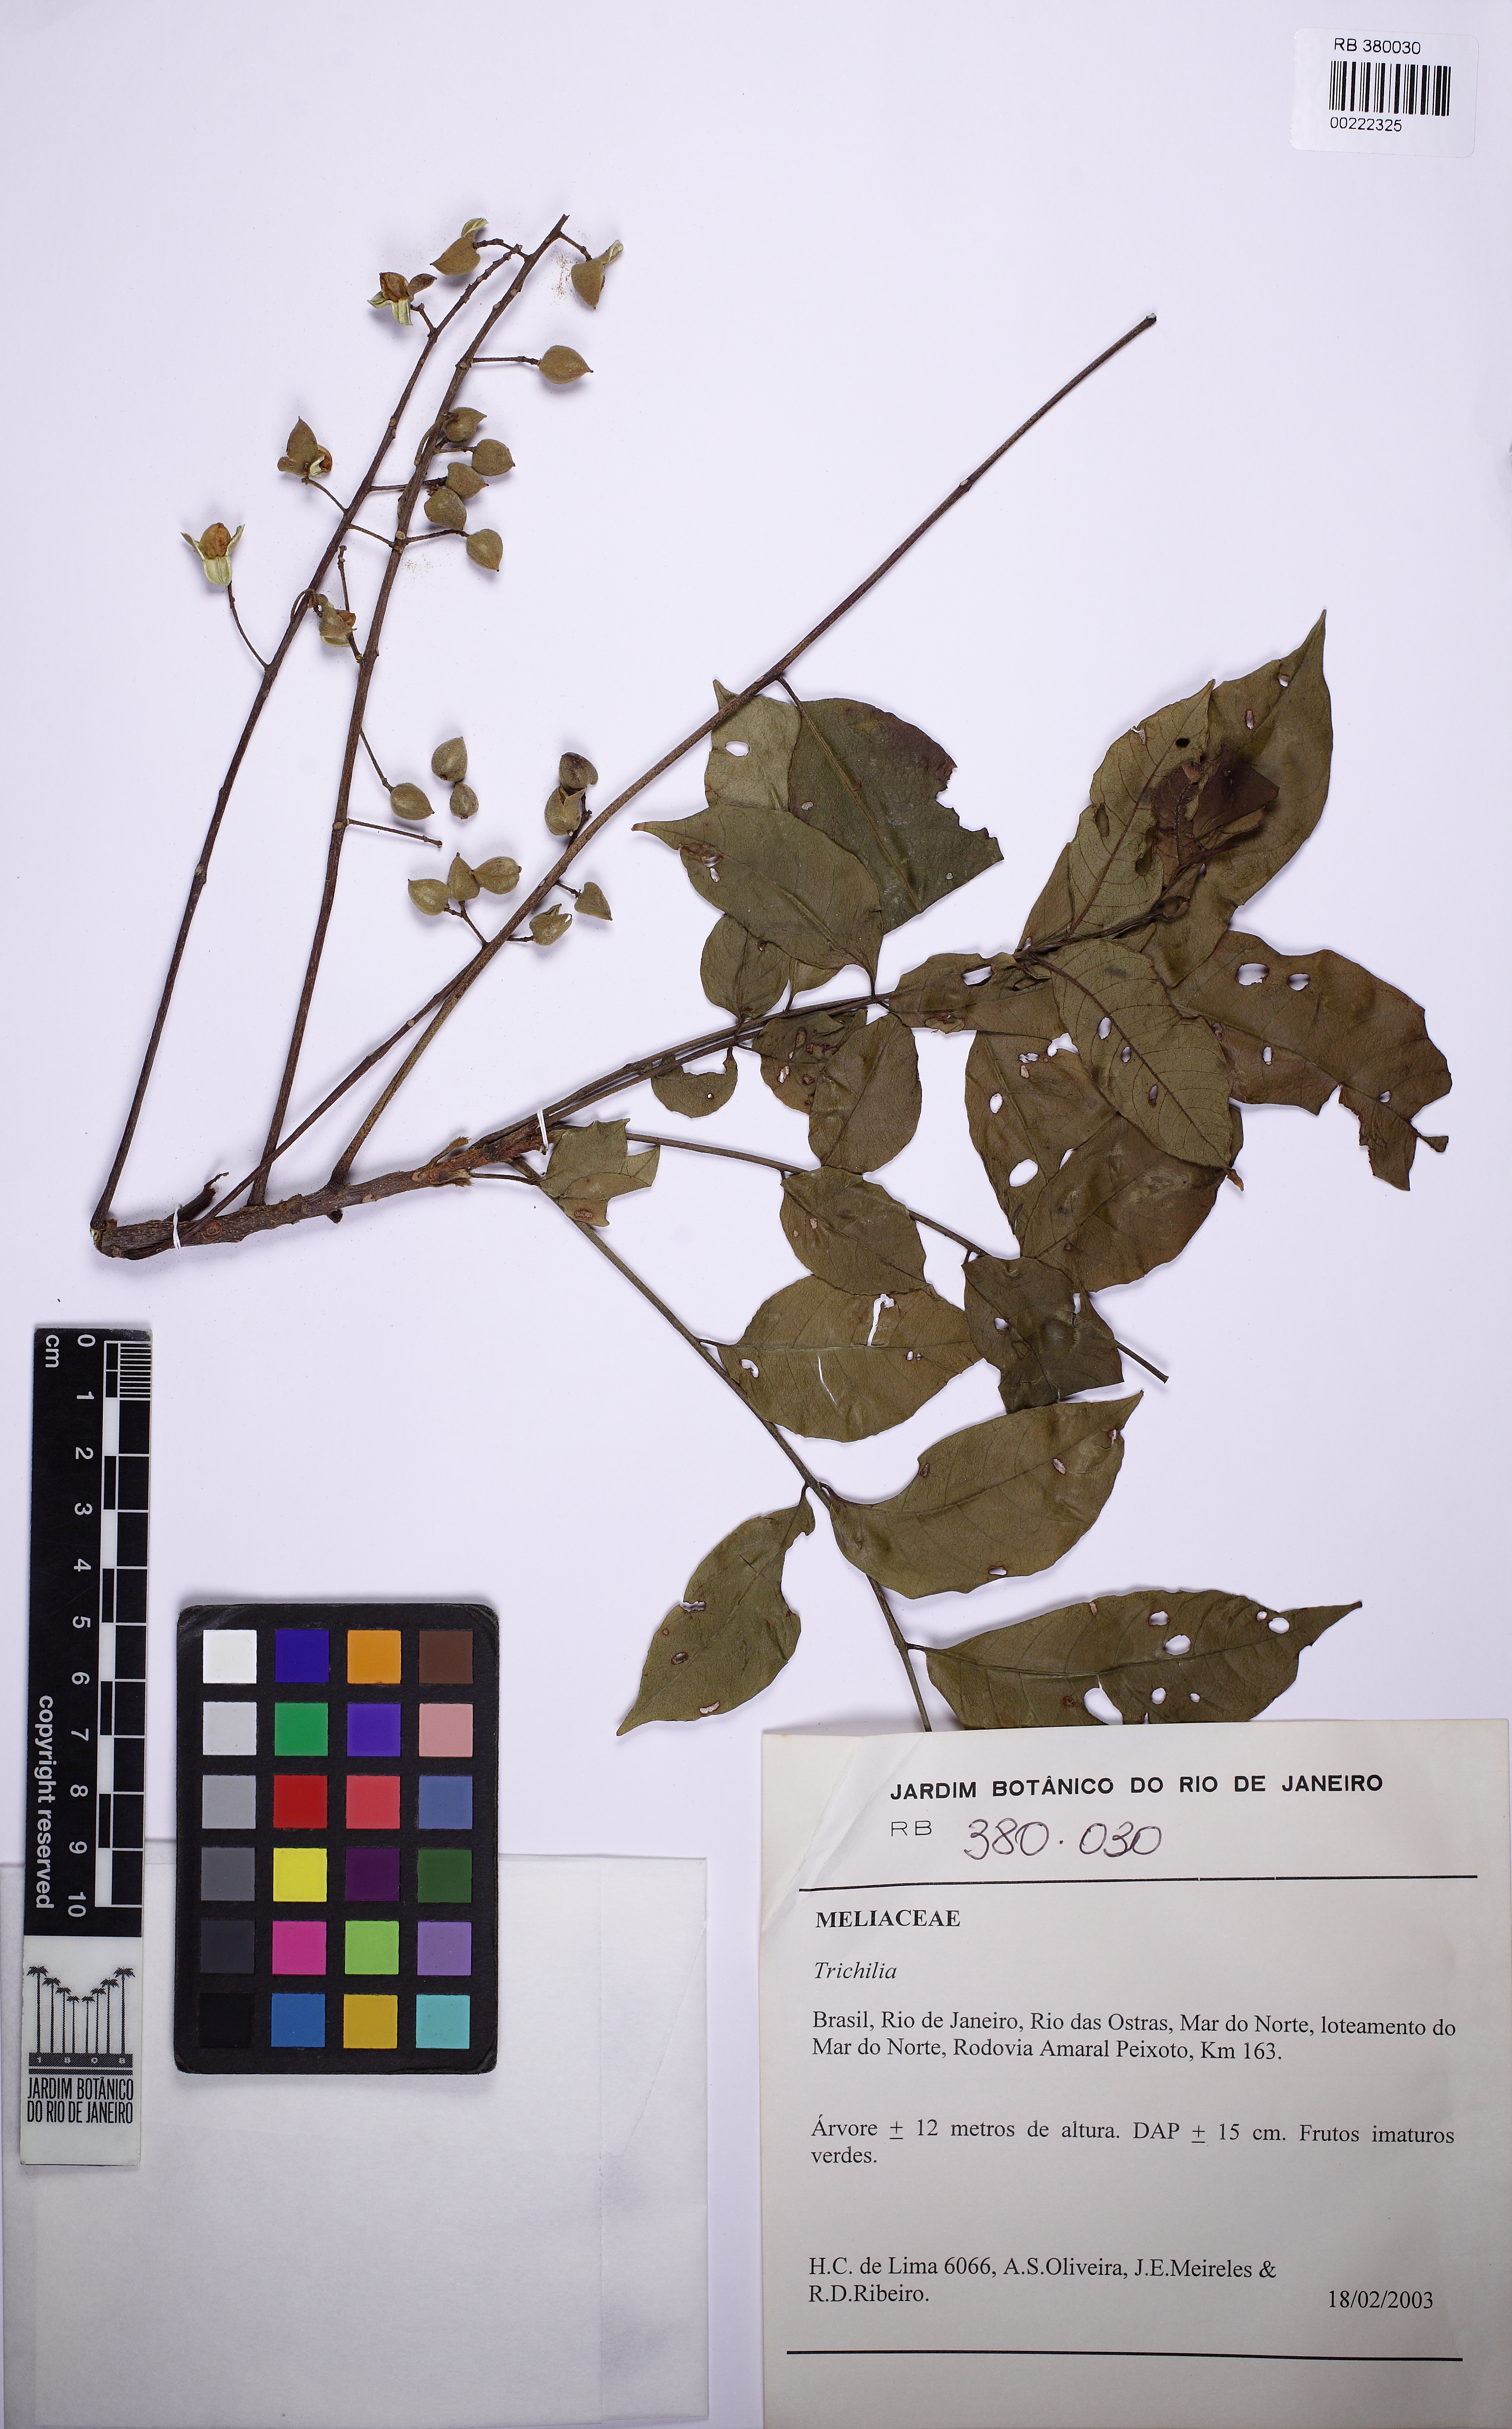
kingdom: Plantae
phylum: Tracheophyta
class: Magnoliopsida
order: Sapindales
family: Meliaceae
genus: Trichilia
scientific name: Trichilia
